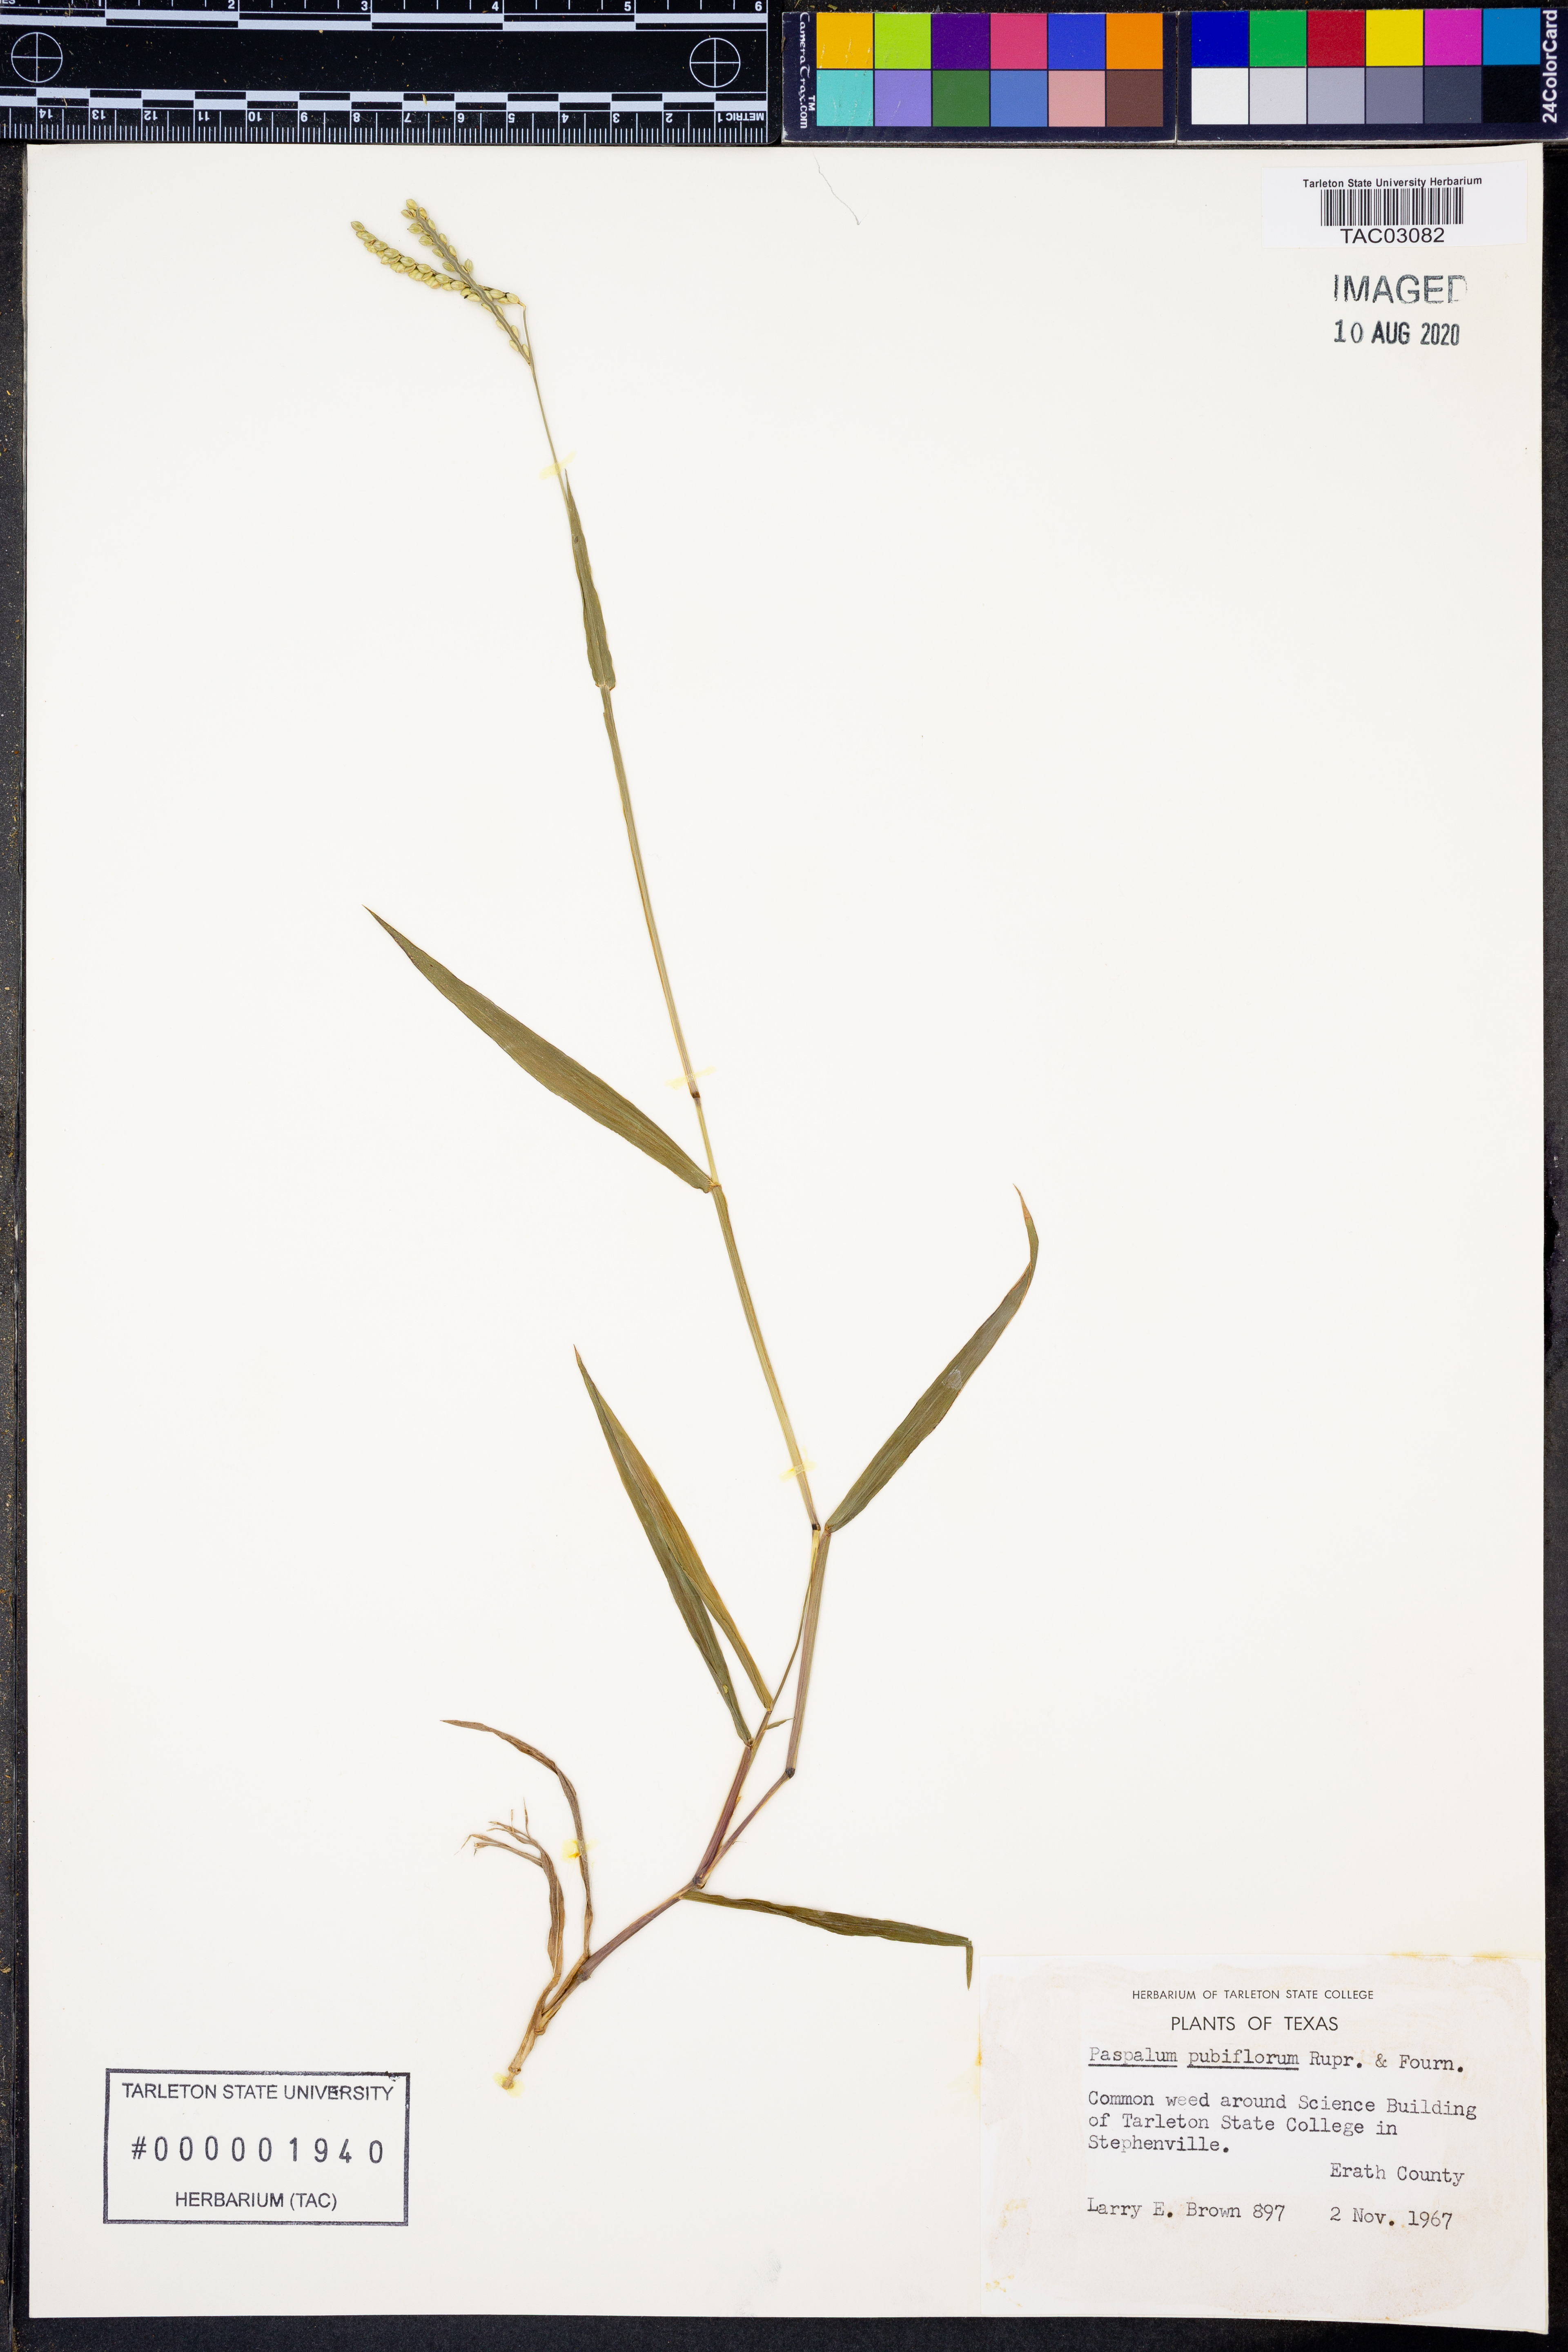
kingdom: Plantae
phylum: Tracheophyta
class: Liliopsida
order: Poales
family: Poaceae
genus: Paspalum
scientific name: Paspalum pubiflorum
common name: Hairy-seed paspalum
